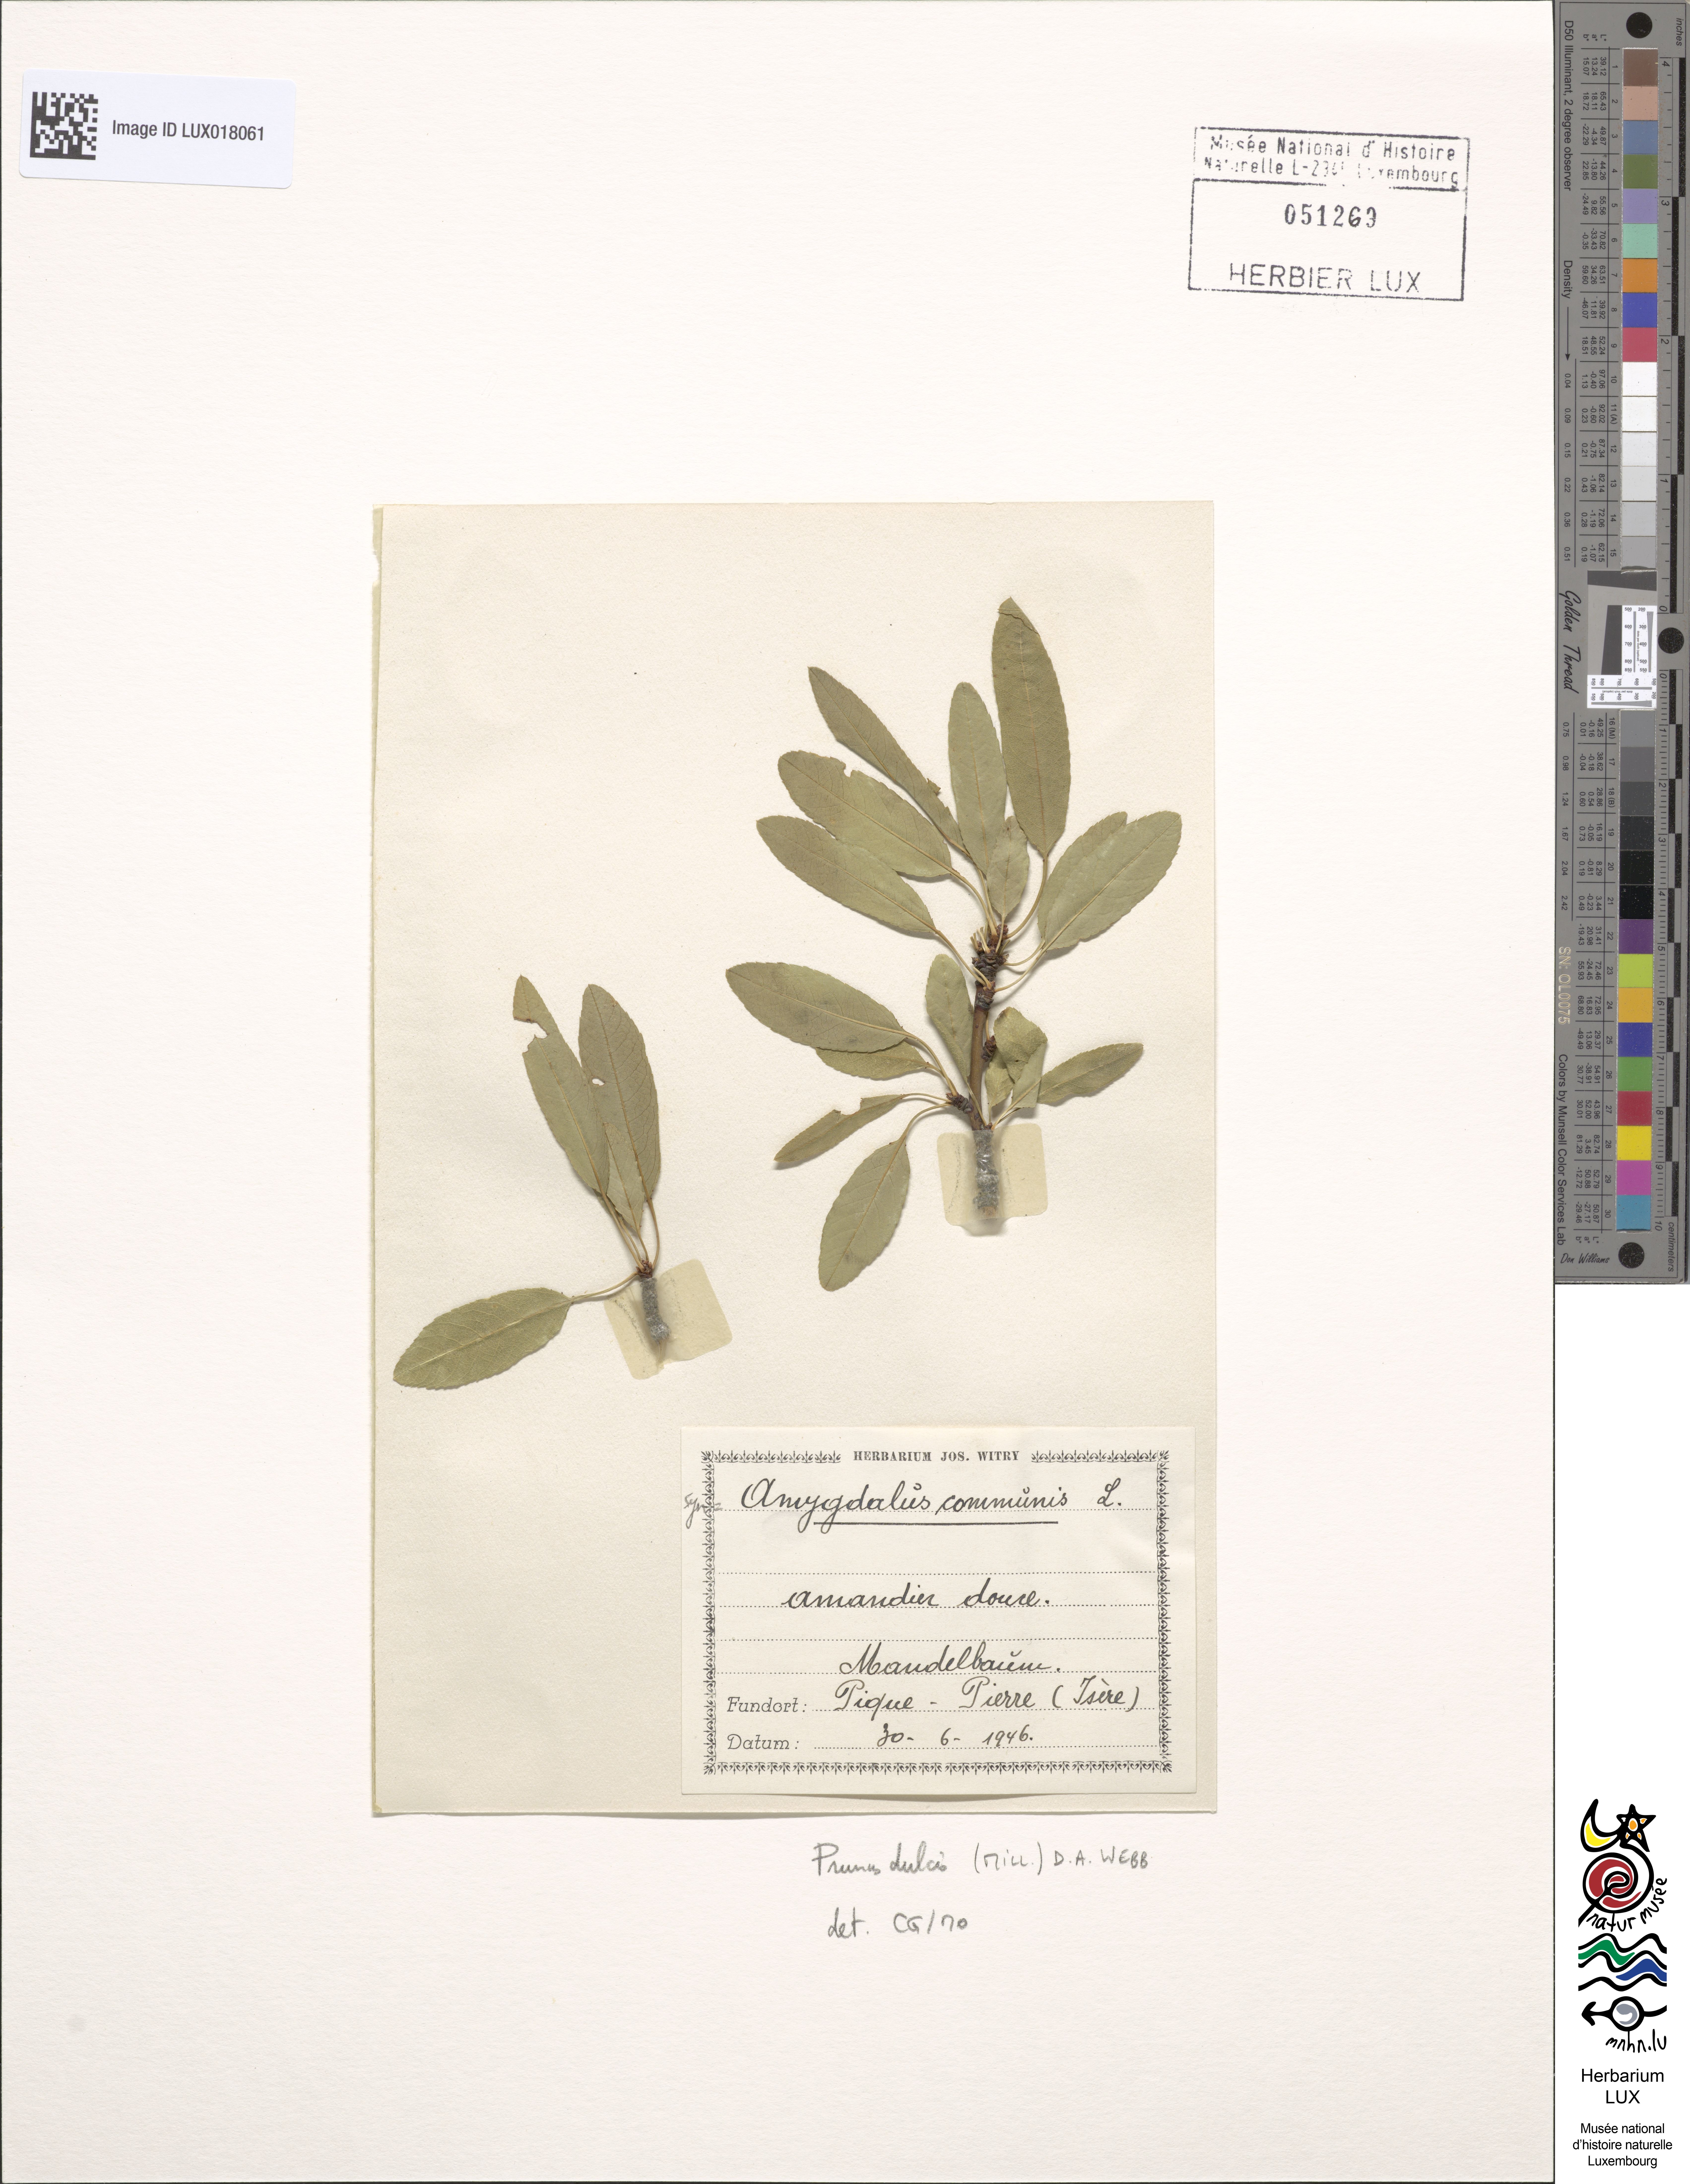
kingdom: Plantae
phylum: Tracheophyta
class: Magnoliopsida
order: Rosales
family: Rosaceae
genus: Prunus
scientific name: Prunus amygdalus
